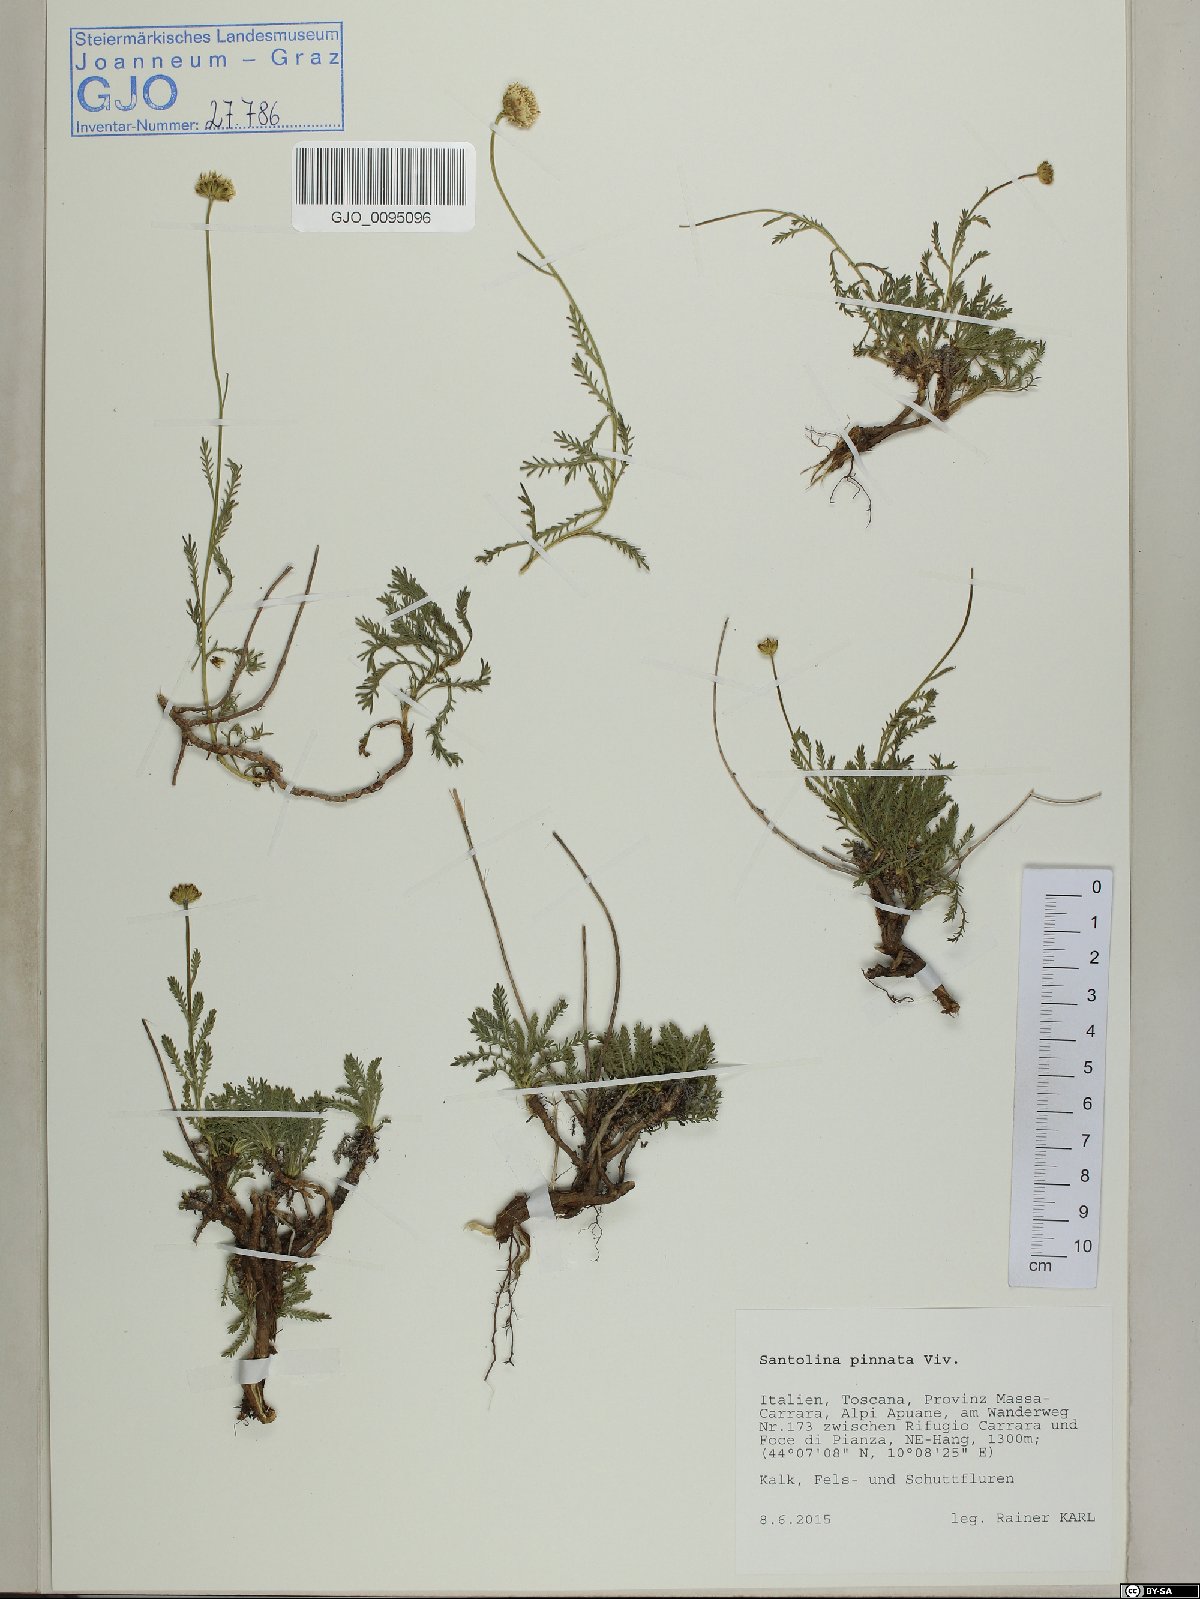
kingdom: Plantae
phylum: Tracheophyta
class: Magnoliopsida
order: Asterales
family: Asteraceae
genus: Santolina
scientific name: Santolina pinnata
